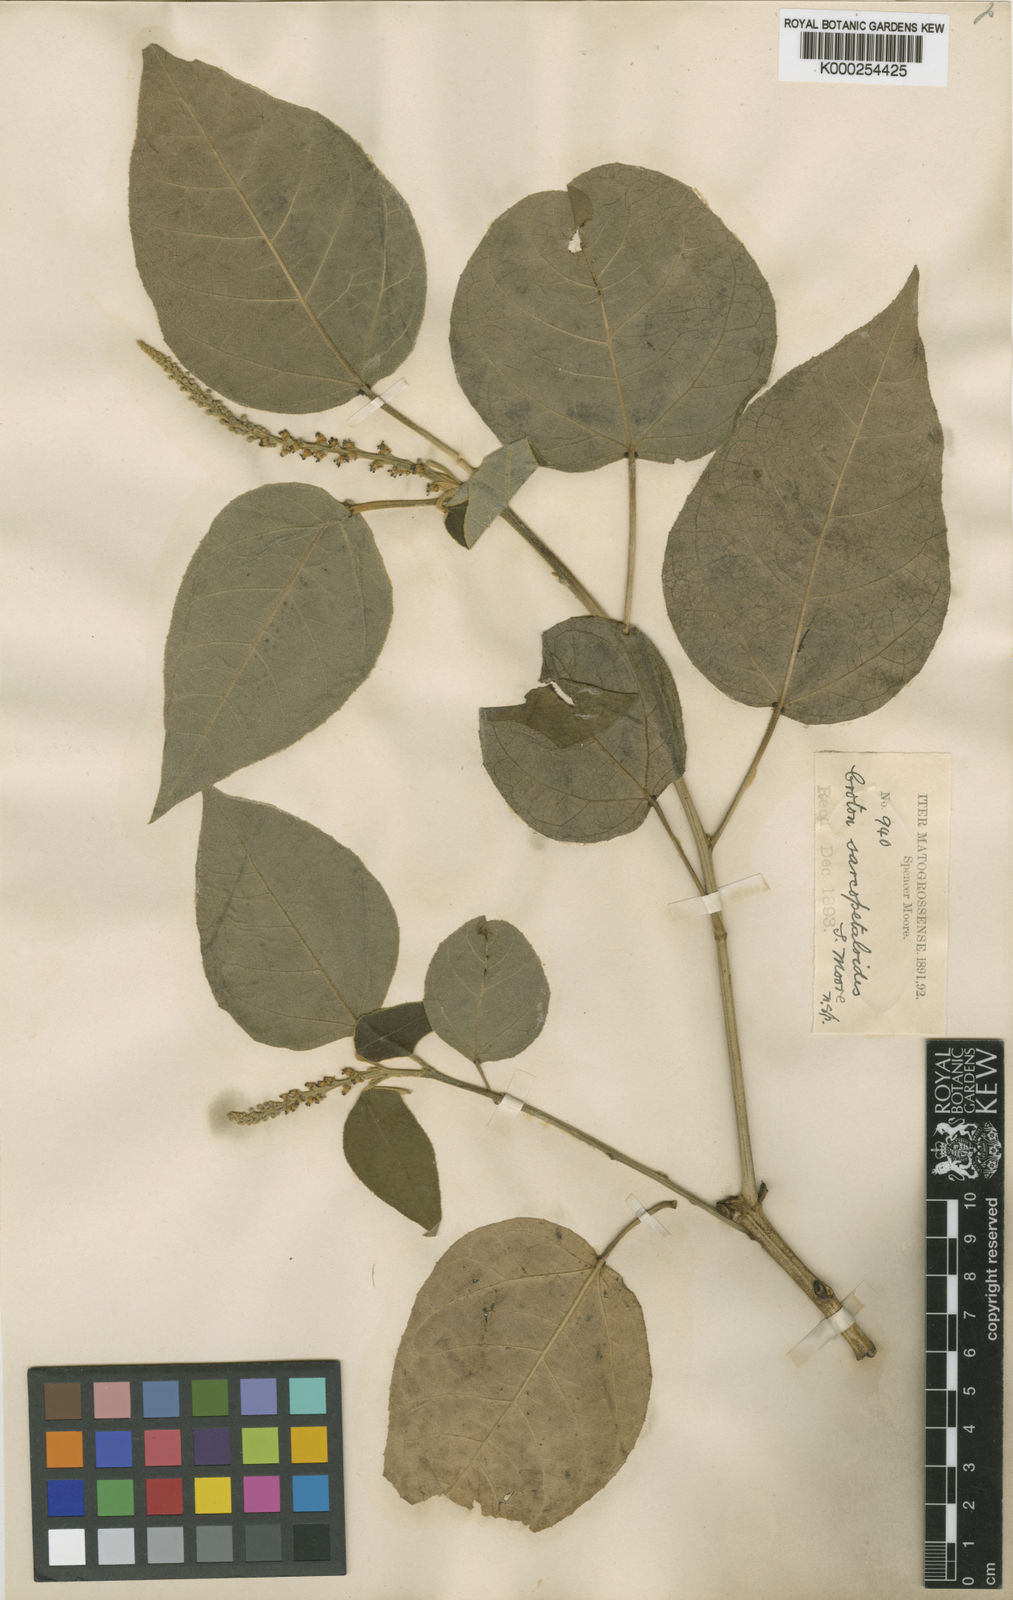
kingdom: Plantae
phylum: Tracheophyta
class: Magnoliopsida
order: Malpighiales
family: Euphorbiaceae
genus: Croton
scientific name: Croton sarcopetaloides
